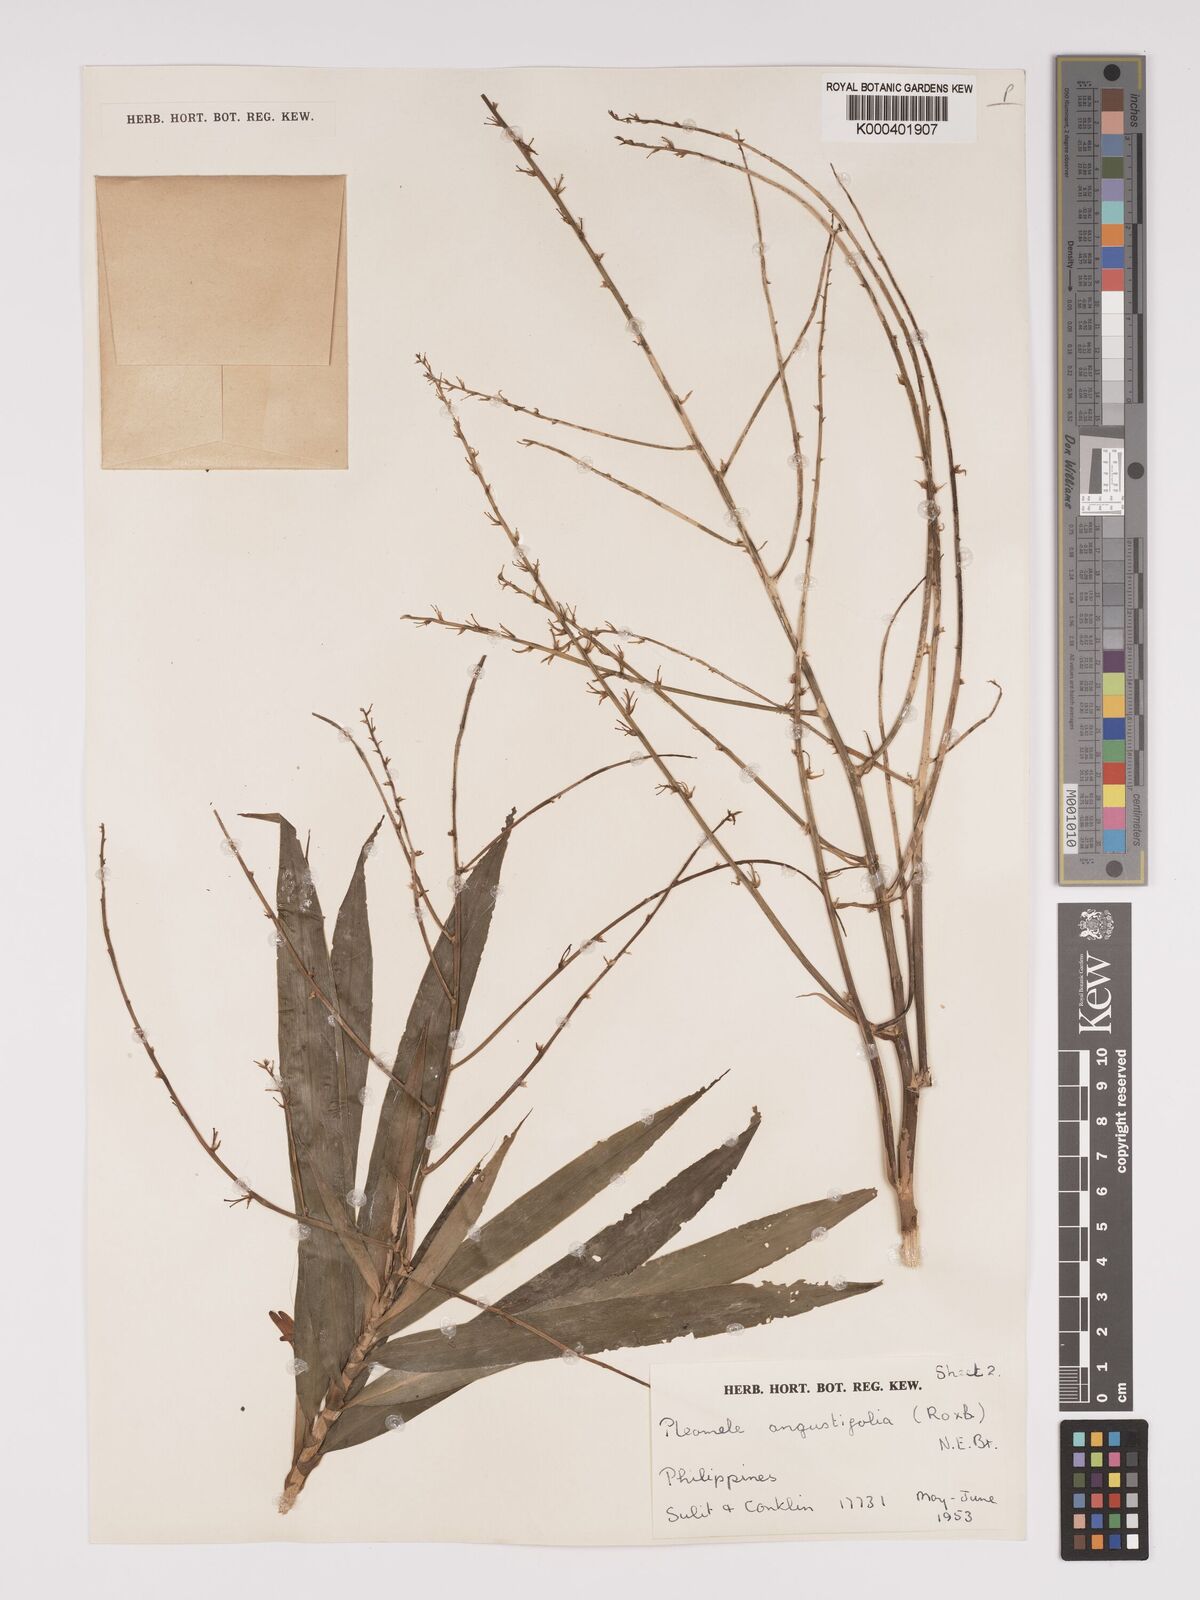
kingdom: Plantae
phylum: Tracheophyta
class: Liliopsida
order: Asparagales
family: Asparagaceae
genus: Dracaena
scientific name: Dracaena angustifolia
